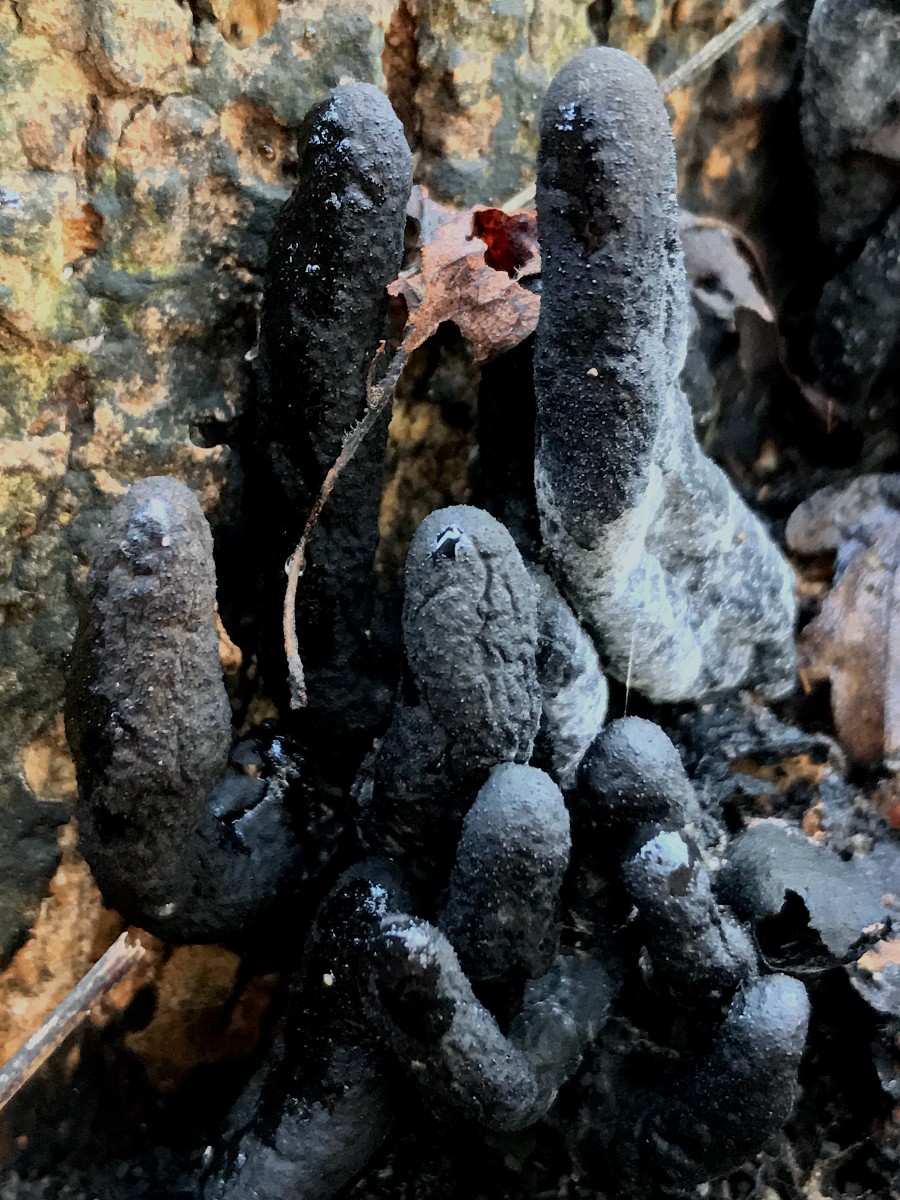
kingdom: Fungi
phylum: Ascomycota
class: Sordariomycetes
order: Xylariales
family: Xylariaceae
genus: Xylaria
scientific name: Xylaria polymorpha
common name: kølle-stødsvamp
